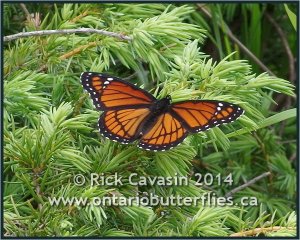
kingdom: Animalia
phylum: Arthropoda
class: Insecta
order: Lepidoptera
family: Nymphalidae
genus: Limenitis
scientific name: Limenitis archippus
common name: Viceroy
